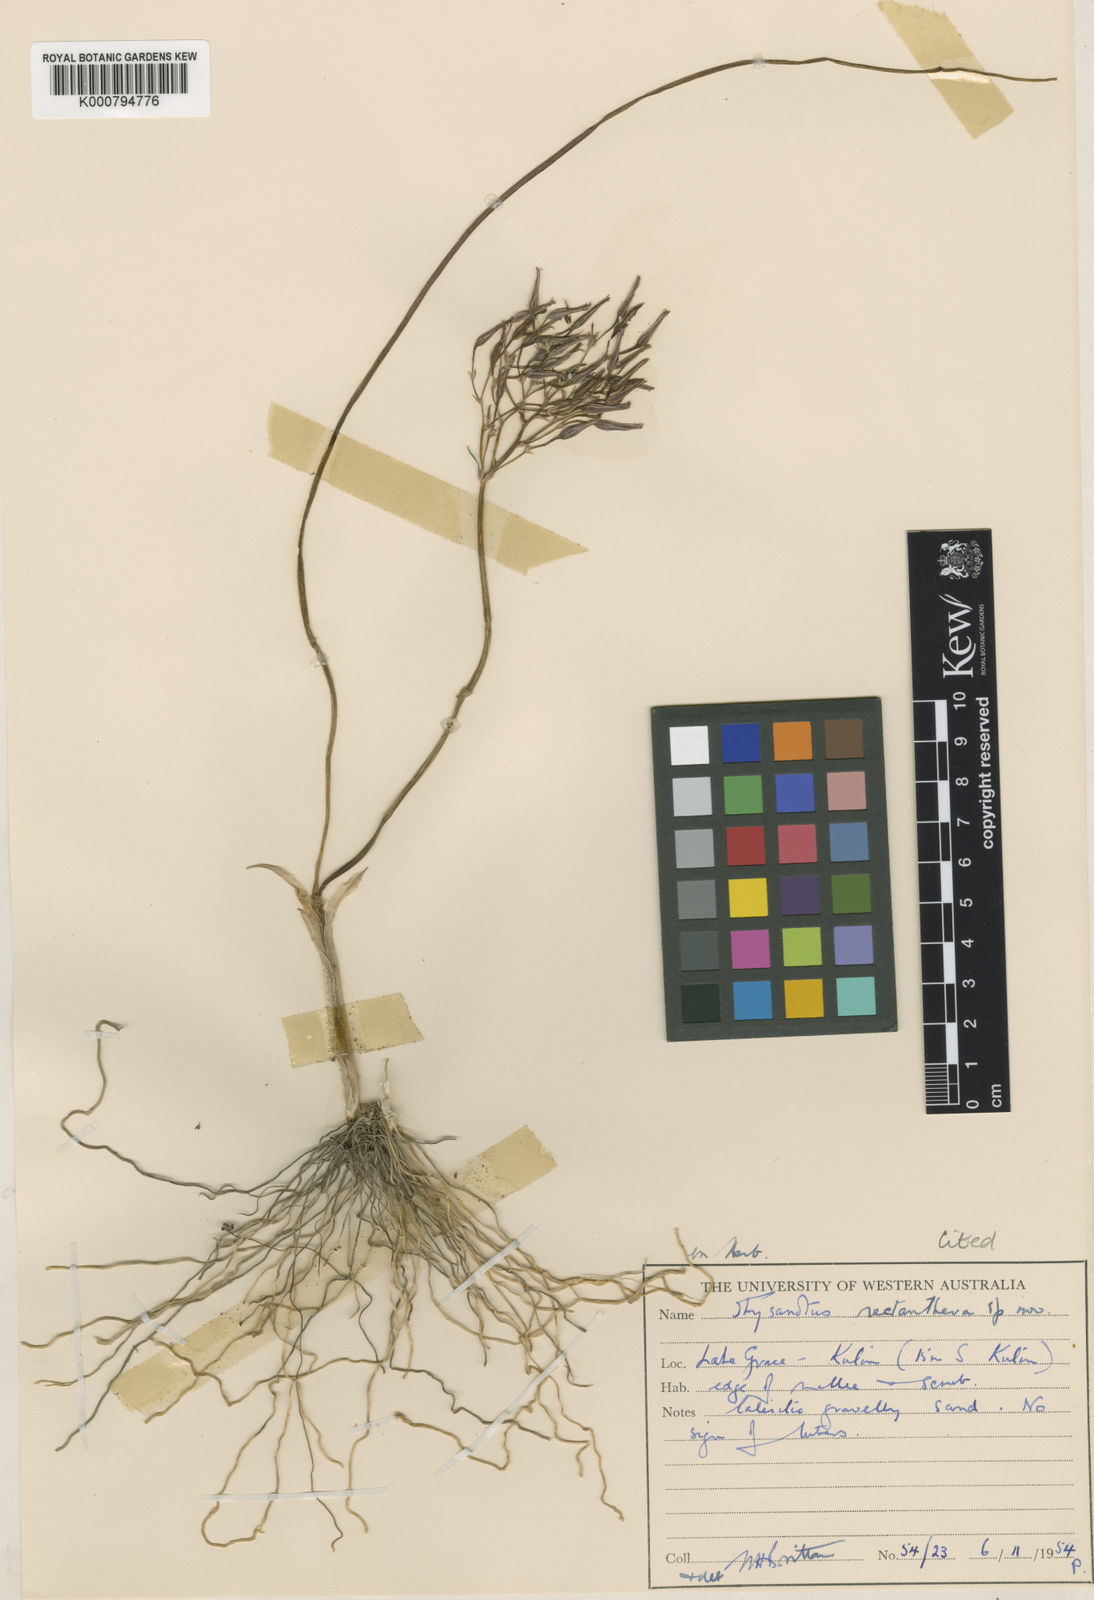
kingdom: Plantae
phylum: Tracheophyta
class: Liliopsida
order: Asparagales
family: Asparagaceae
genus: Thysanotus
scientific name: Thysanotus rectantherus
